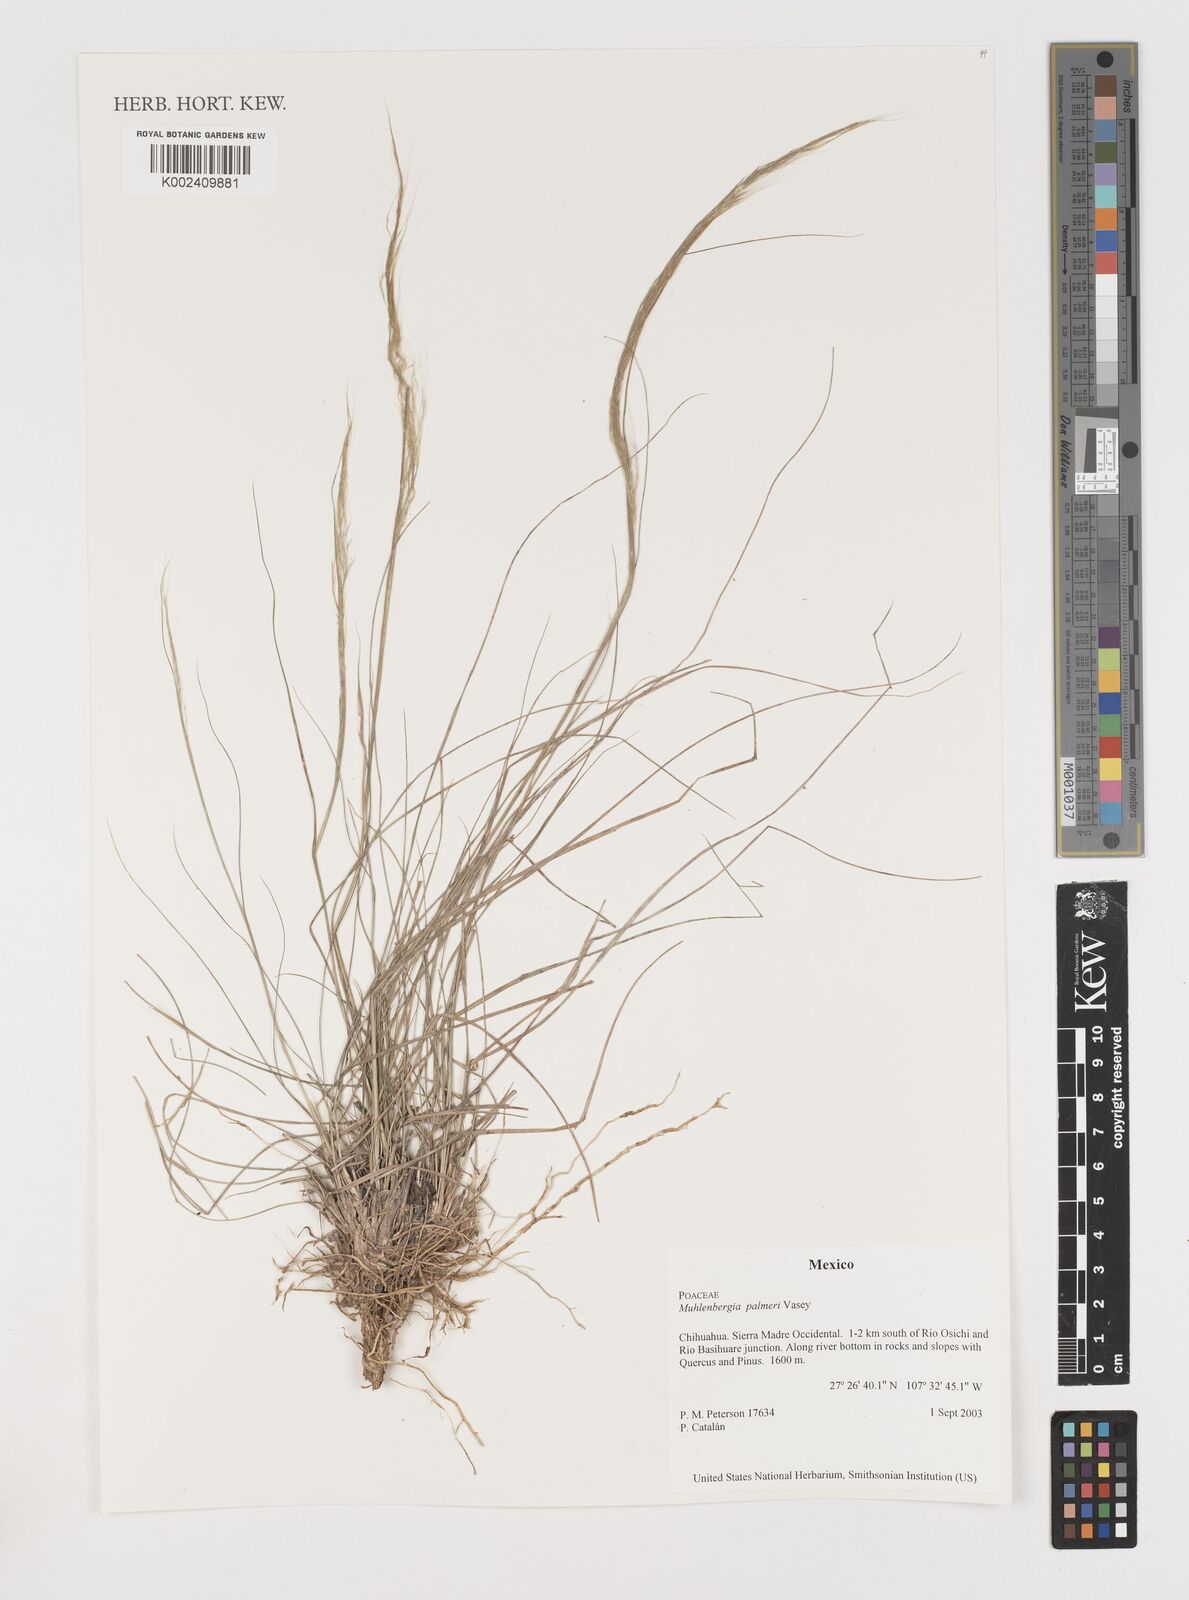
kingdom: Plantae
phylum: Tracheophyta
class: Liliopsida
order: Poales
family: Poaceae
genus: Muhlenbergia
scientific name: Muhlenbergia palmeri
